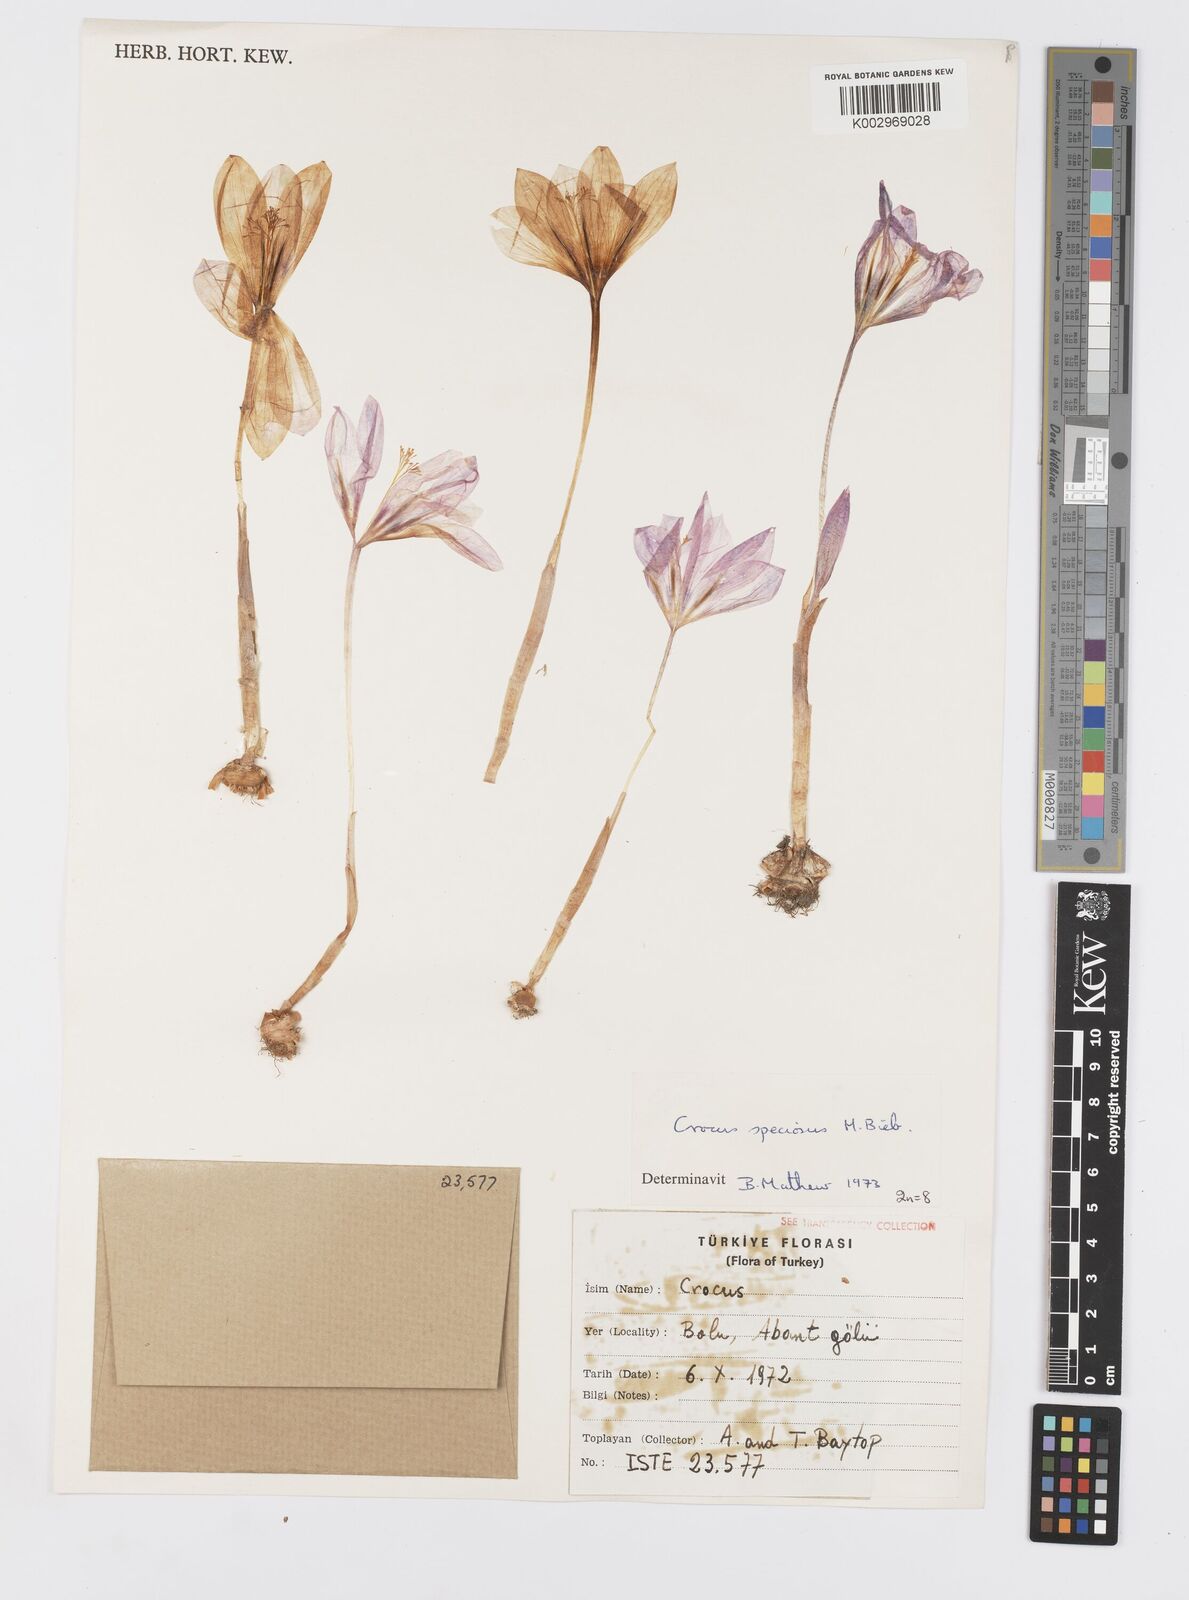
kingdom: Plantae
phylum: Tracheophyta
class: Liliopsida
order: Asparagales
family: Iridaceae
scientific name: Iridaceae
